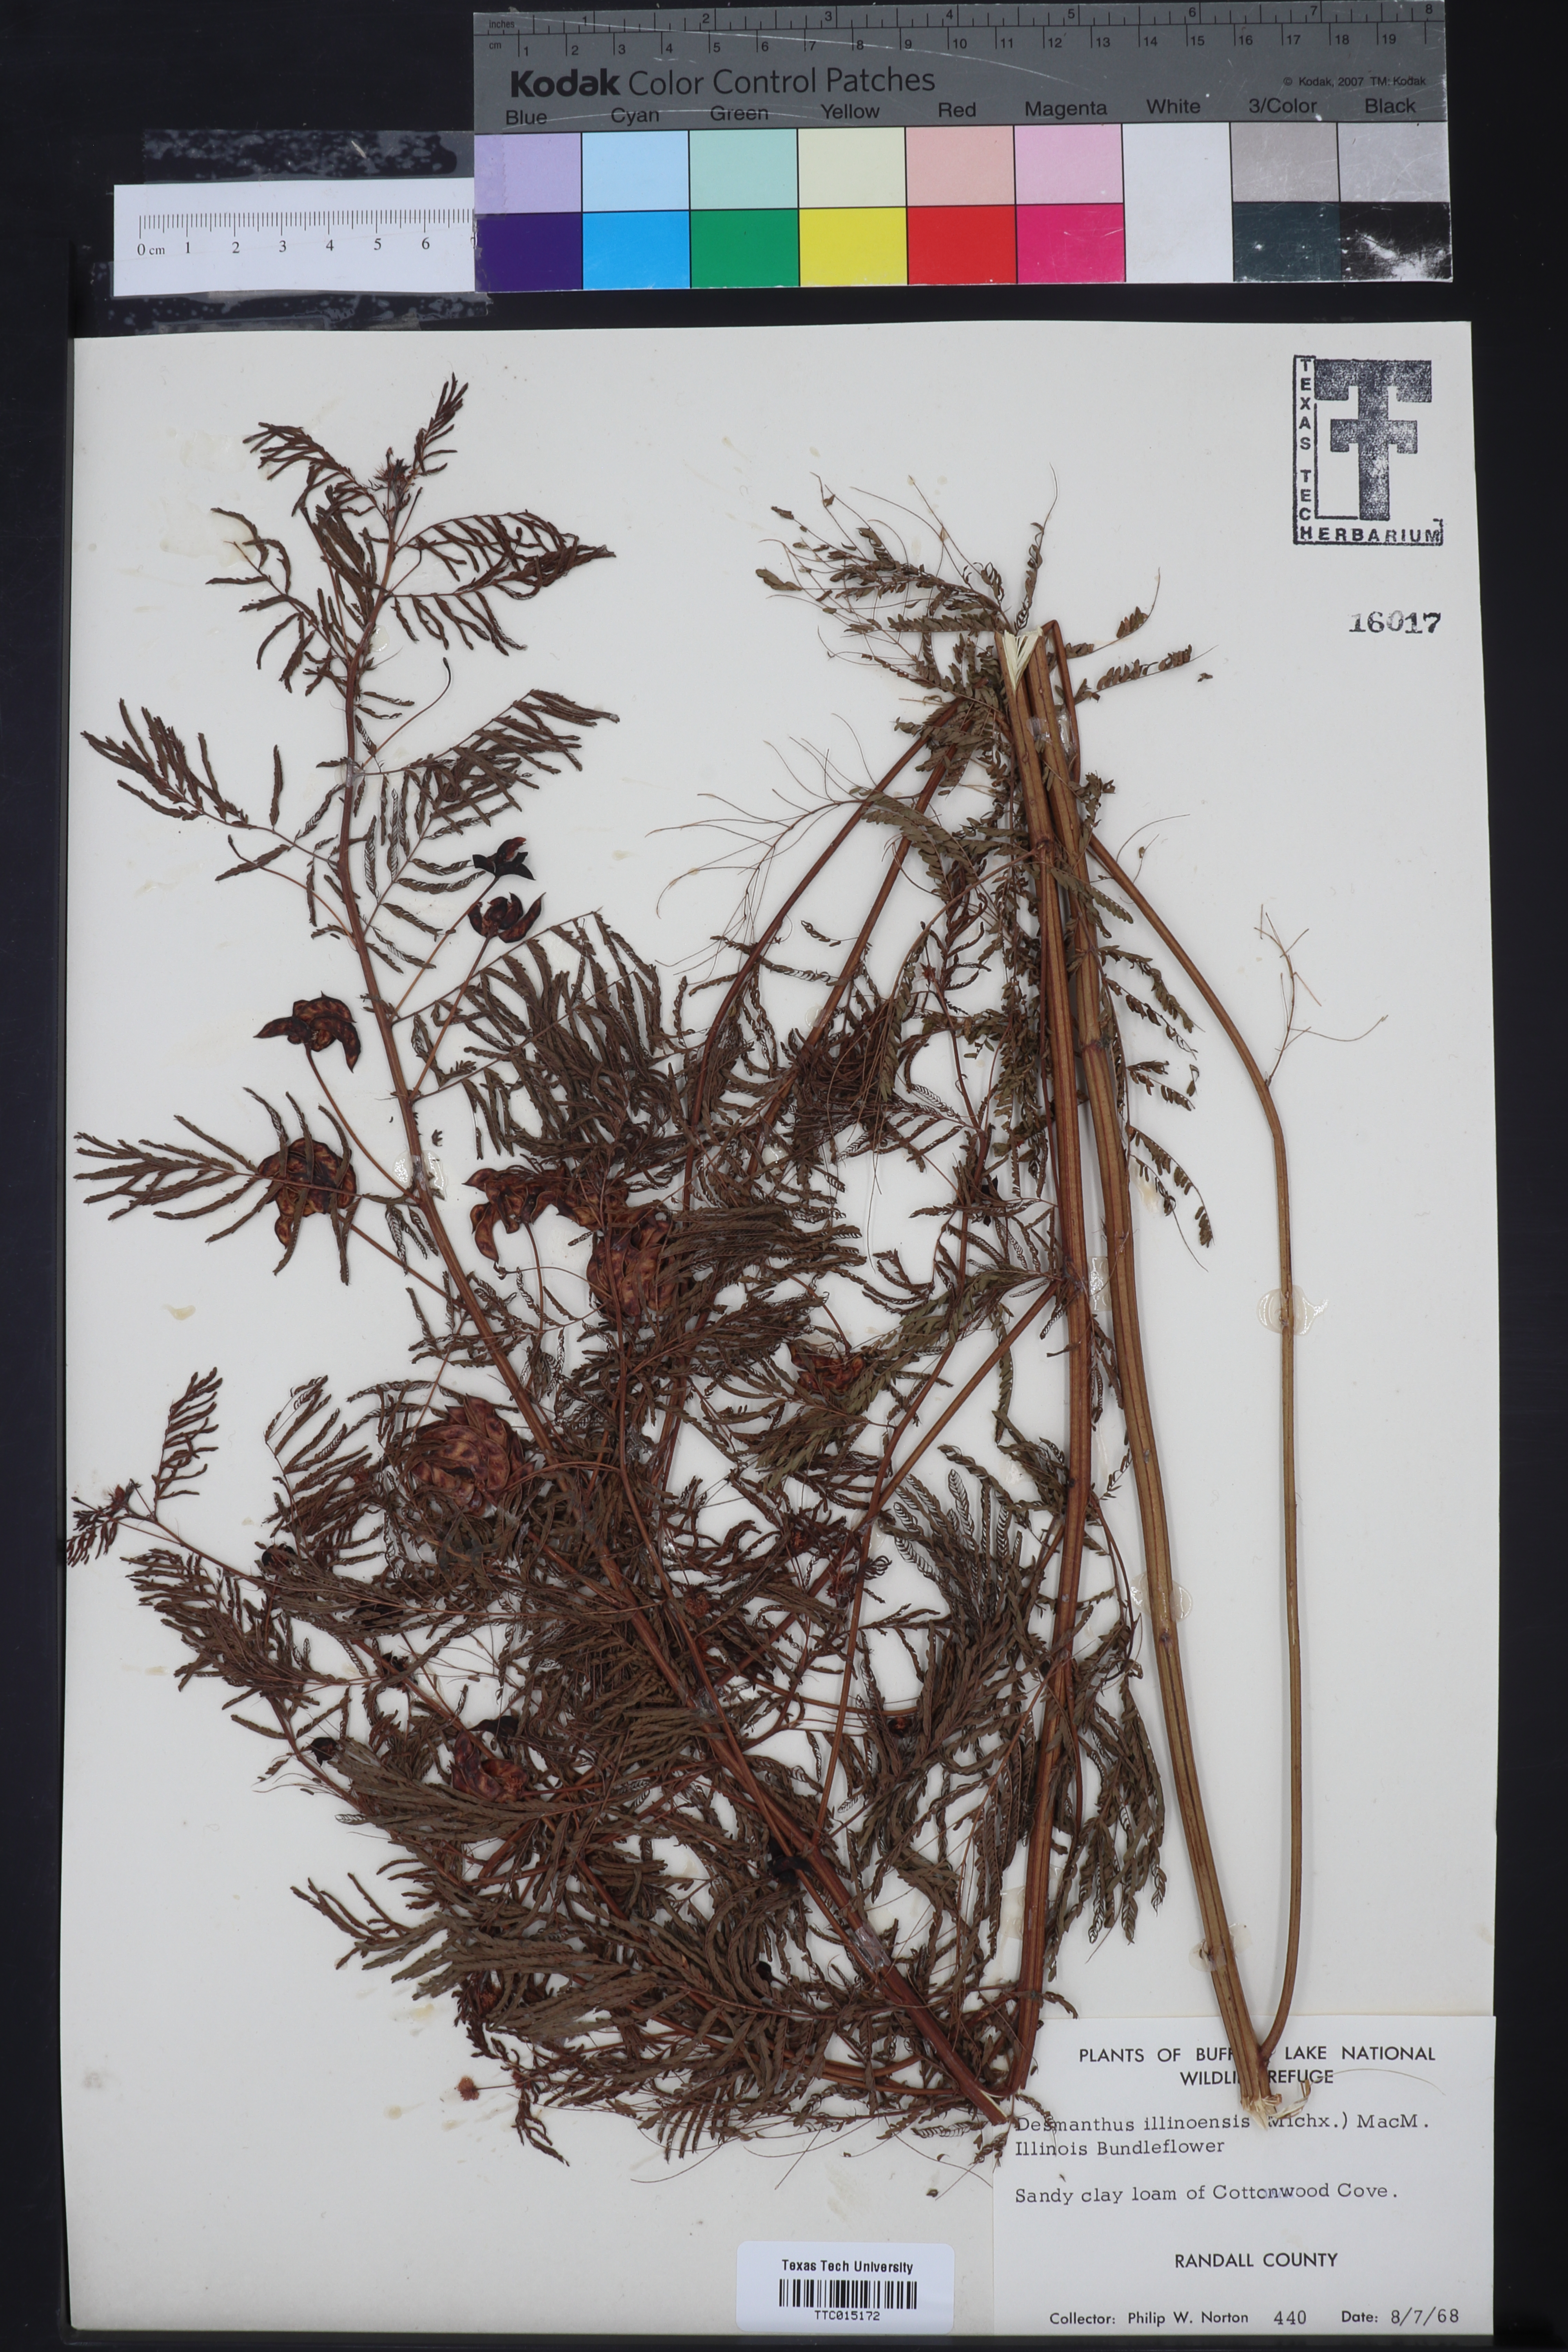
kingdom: Plantae
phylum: Tracheophyta
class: Magnoliopsida
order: Fabales
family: Fabaceae
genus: Desmanthus
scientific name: Desmanthus illinoensis
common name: Illinois bundle-flower
